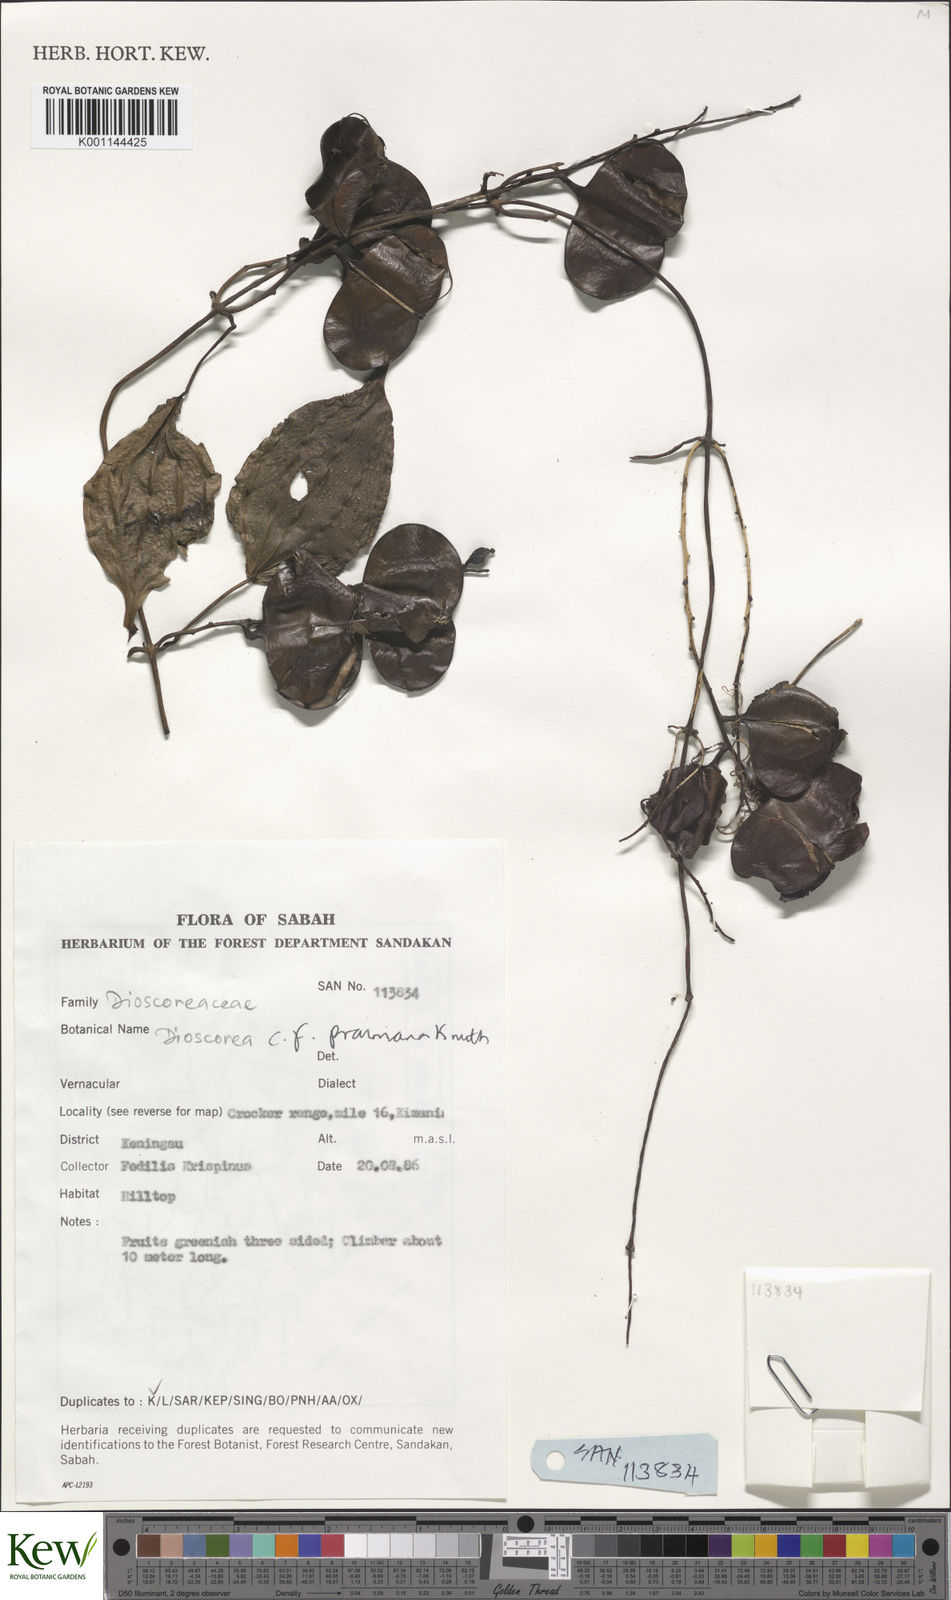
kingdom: Plantae
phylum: Tracheophyta
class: Liliopsida
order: Dioscoreales
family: Dioscoreaceae
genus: Dioscorea
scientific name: Dioscorea
